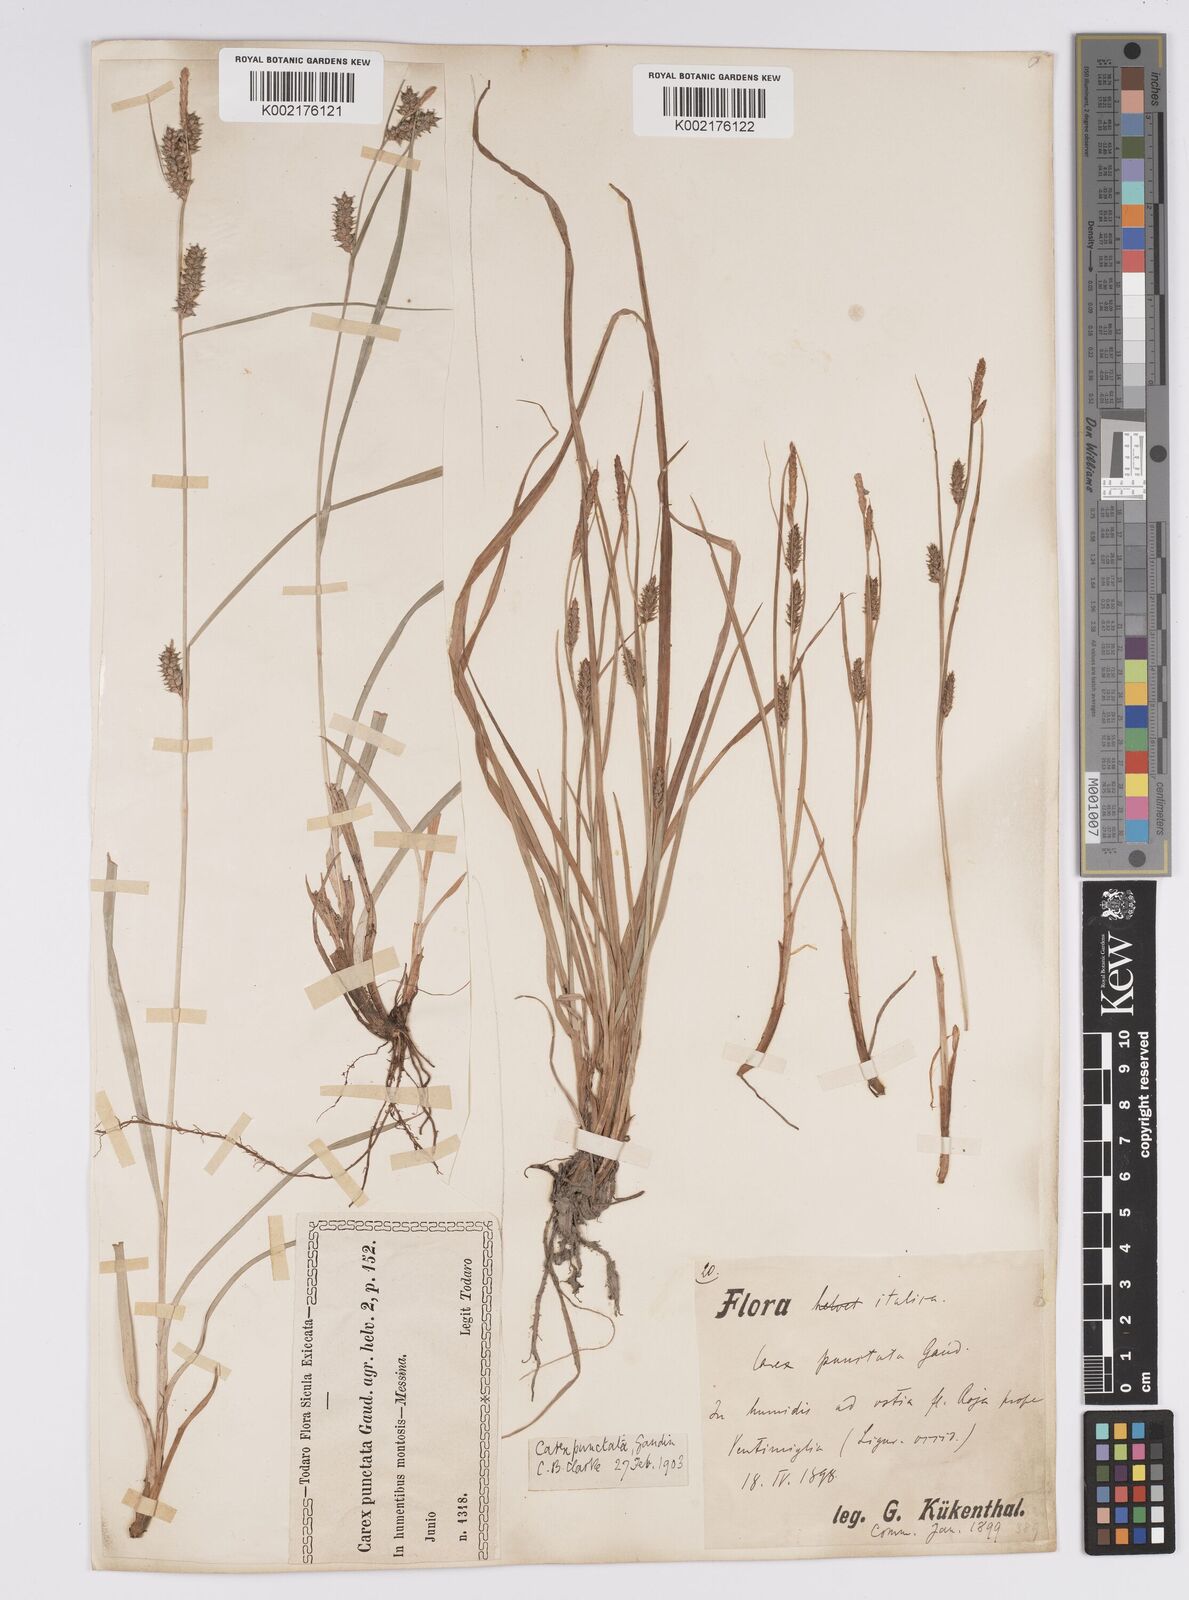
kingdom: Plantae
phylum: Tracheophyta
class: Liliopsida
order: Poales
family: Cyperaceae
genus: Carex
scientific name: Carex punctata
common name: Dotted sedge
